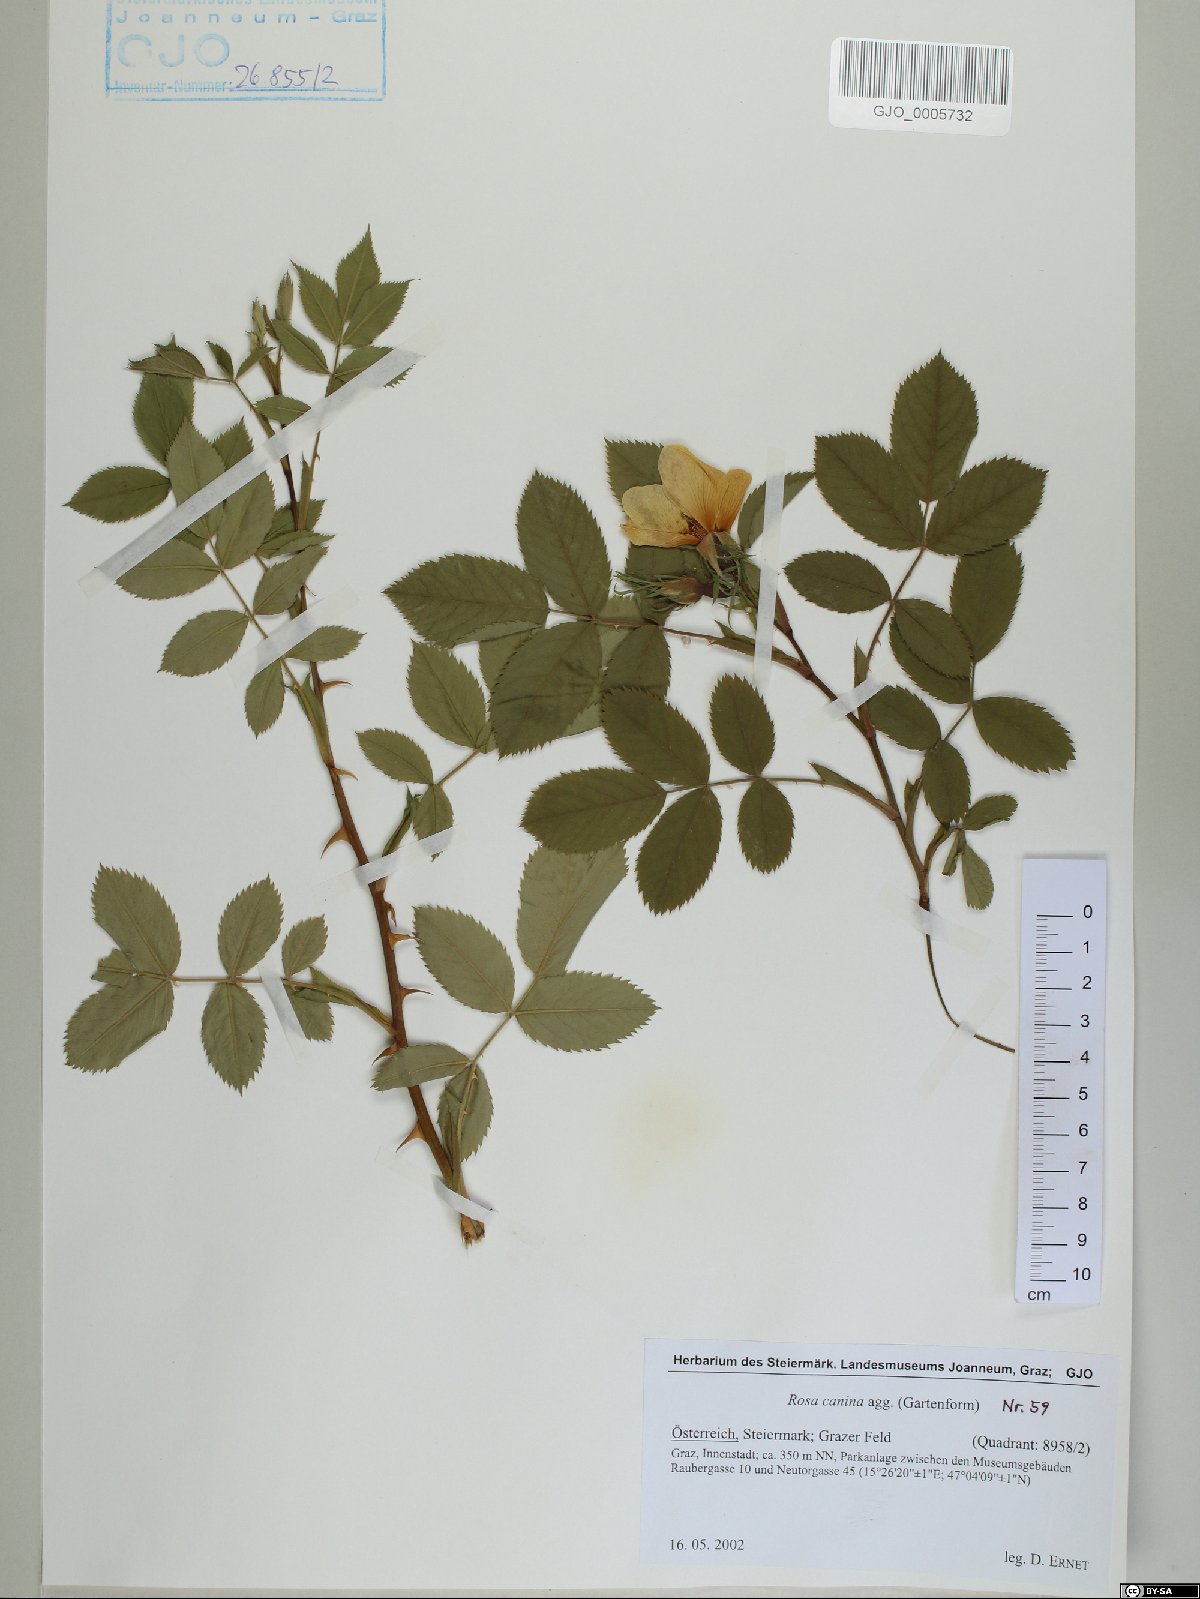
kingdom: Plantae
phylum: Tracheophyta
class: Magnoliopsida
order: Rosales
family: Rosaceae
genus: Rosa
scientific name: Rosa canina
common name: Dog rose
